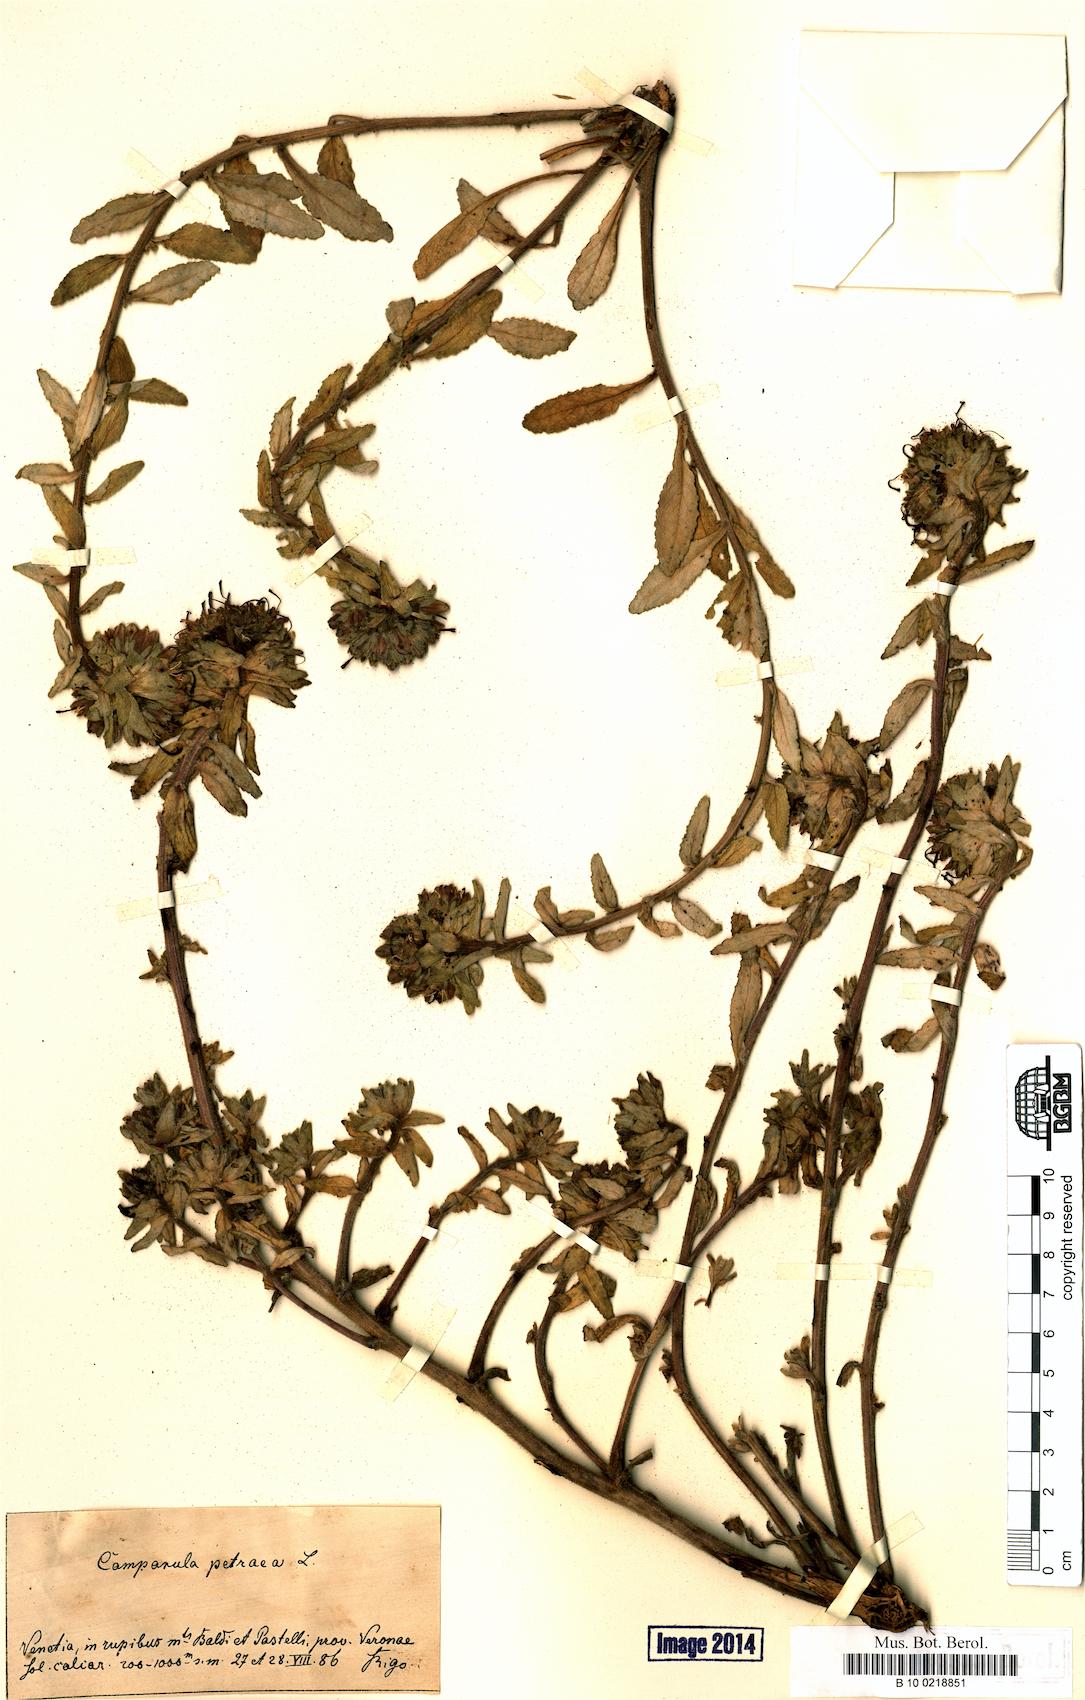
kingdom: Plantae
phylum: Tracheophyta
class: Magnoliopsida
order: Asterales
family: Campanulaceae
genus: Campanula
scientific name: Campanula petraea
